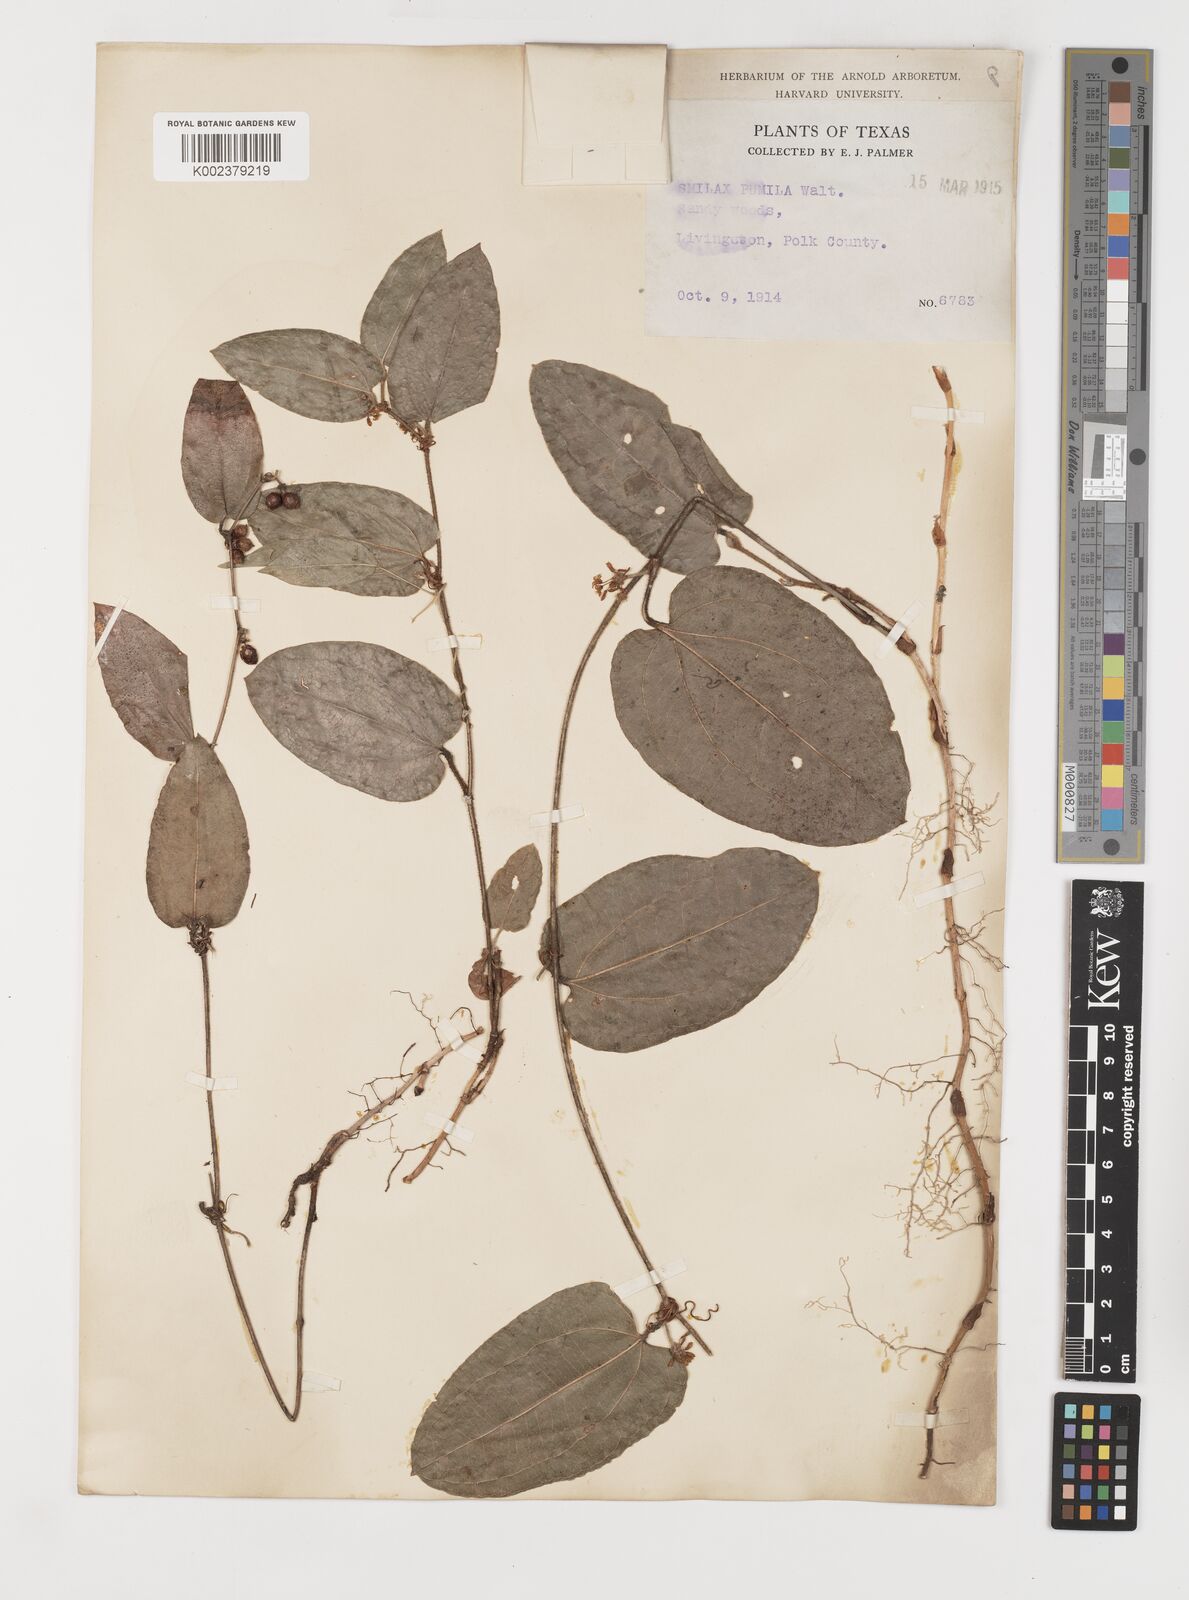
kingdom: Plantae
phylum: Tracheophyta
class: Liliopsida
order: Liliales
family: Smilacaceae
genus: Smilax
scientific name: Smilax pumila
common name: Sarsaparilla-vine
